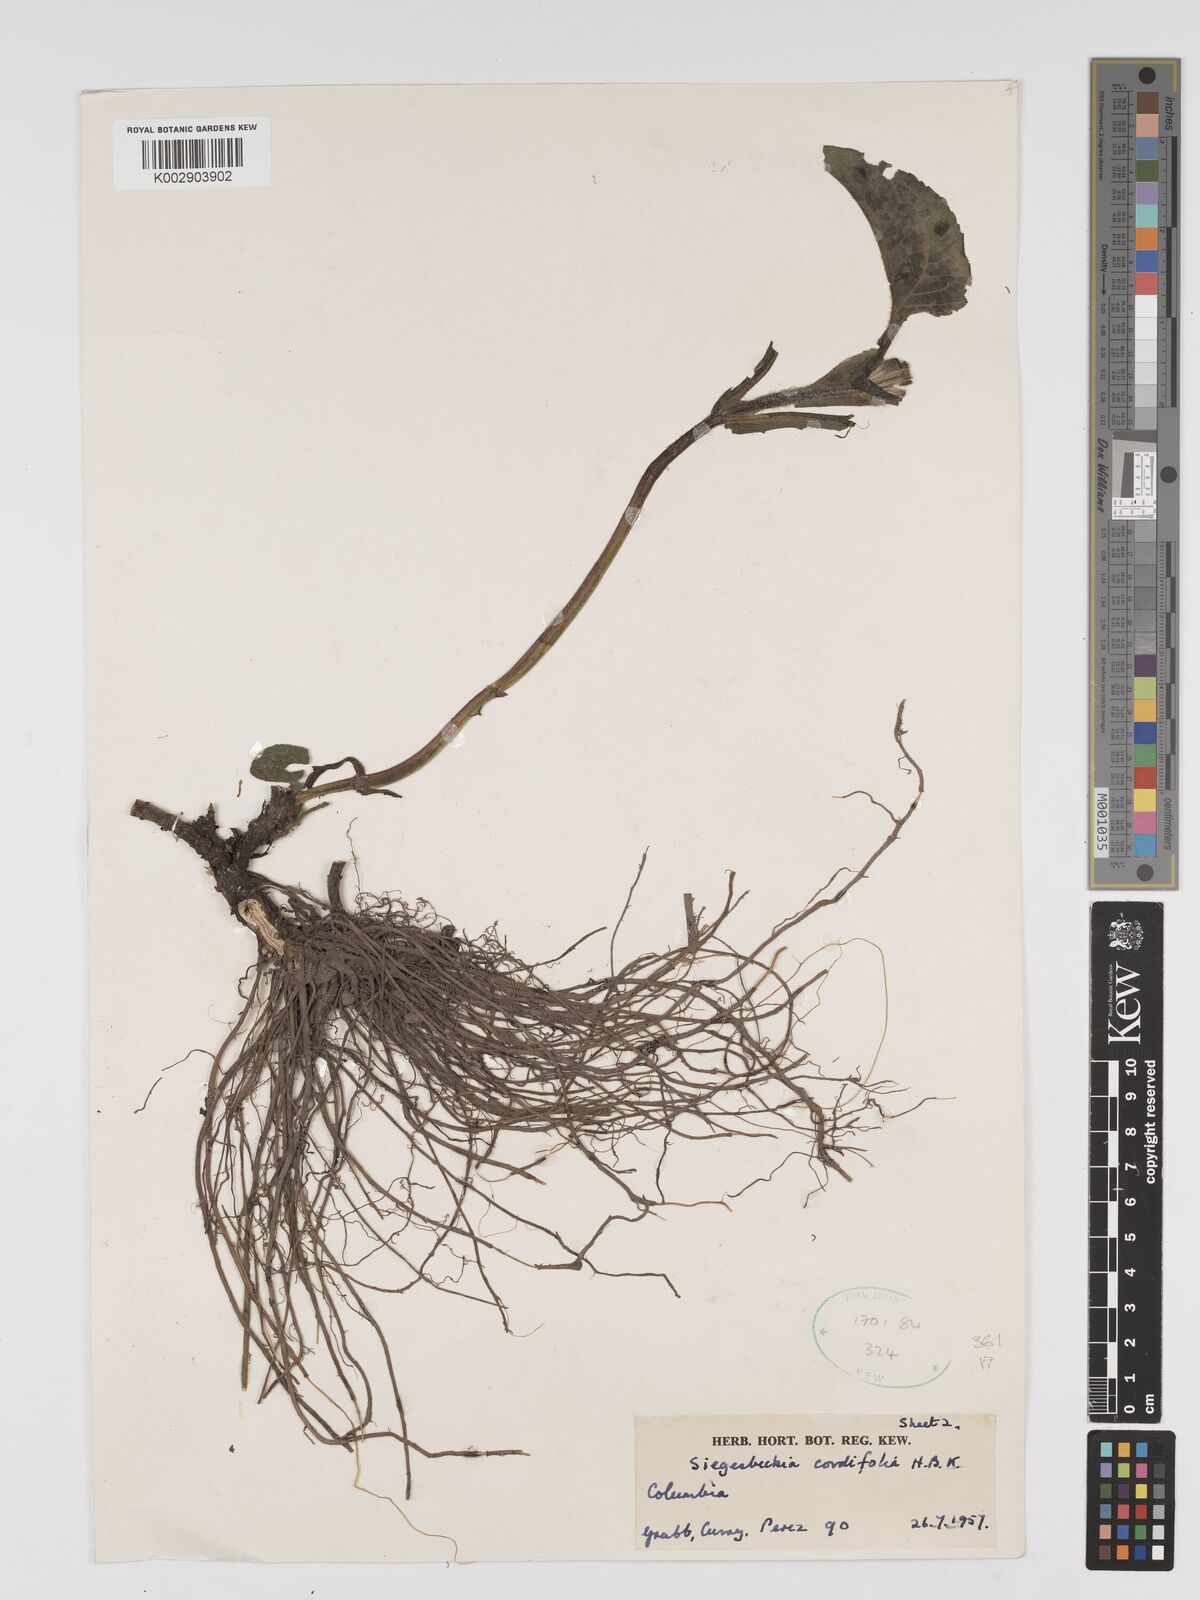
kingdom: Plantae
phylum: Tracheophyta
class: Magnoliopsida
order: Asterales
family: Asteraceae
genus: Sigesbeckia
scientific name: Sigesbeckia jorullensis
